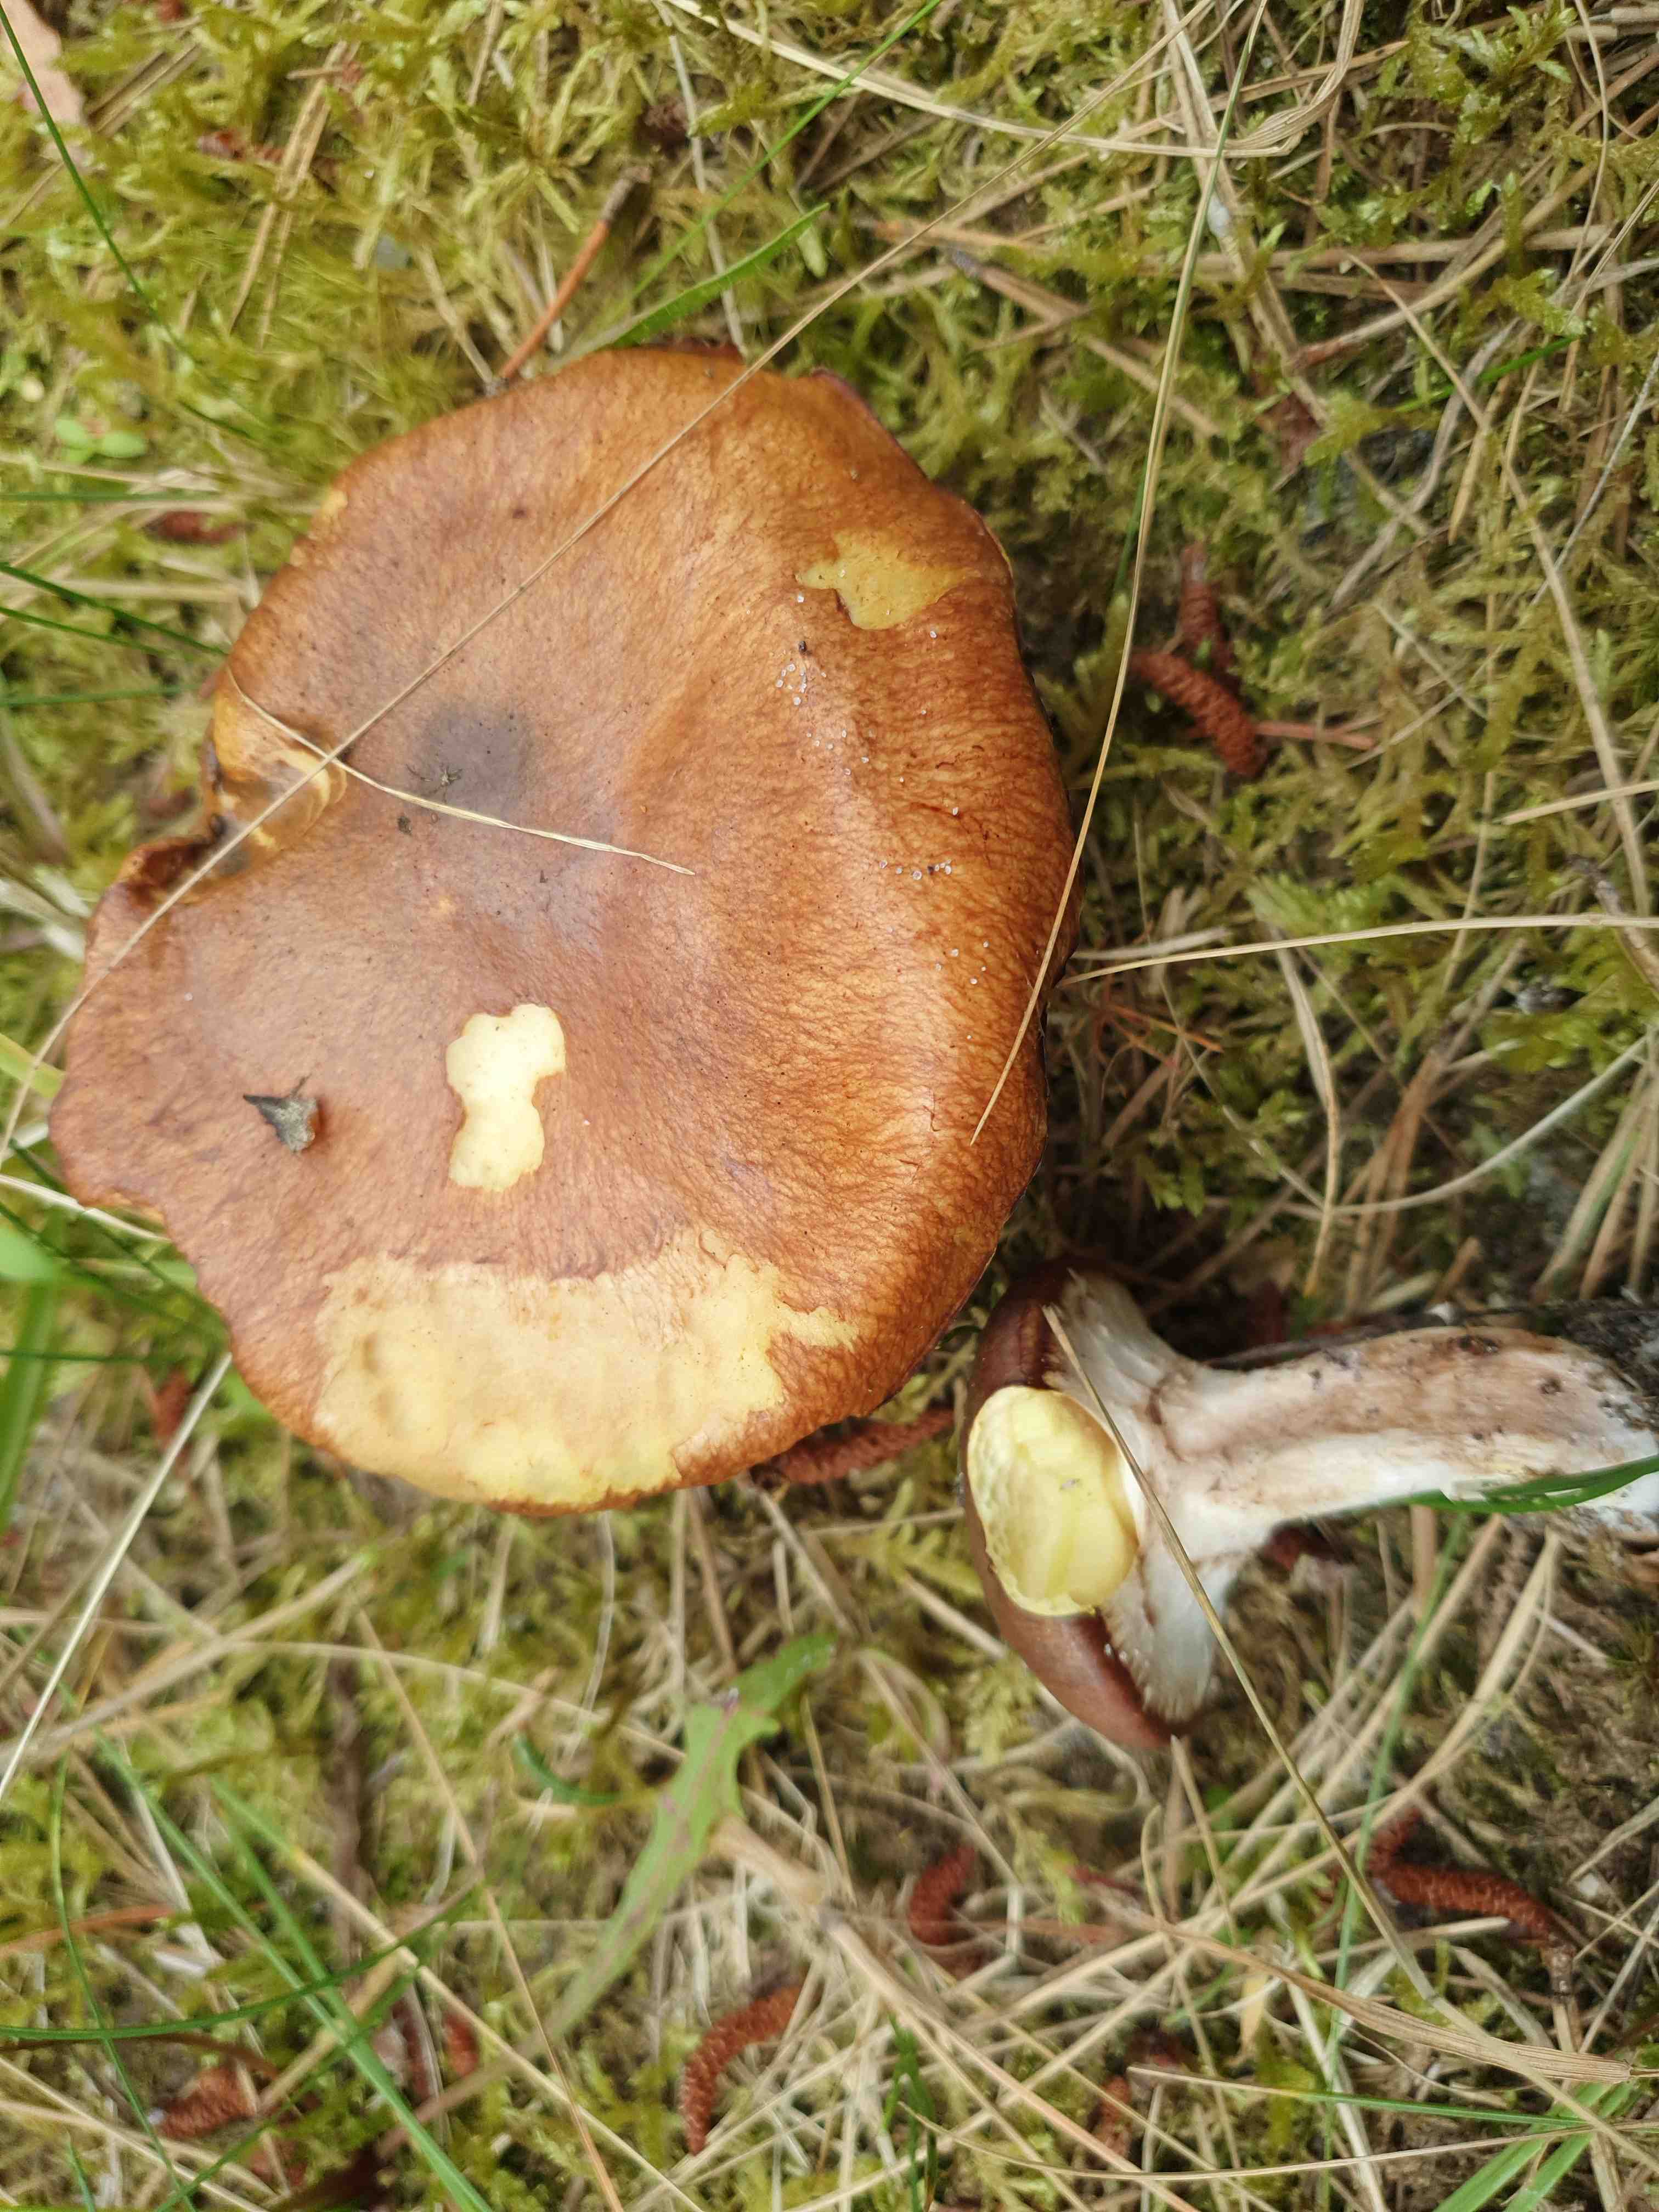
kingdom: Fungi
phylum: Basidiomycota
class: Agaricomycetes
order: Boletales
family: Suillaceae
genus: Suillus
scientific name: Suillus luteus
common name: brungul slimrørhat
